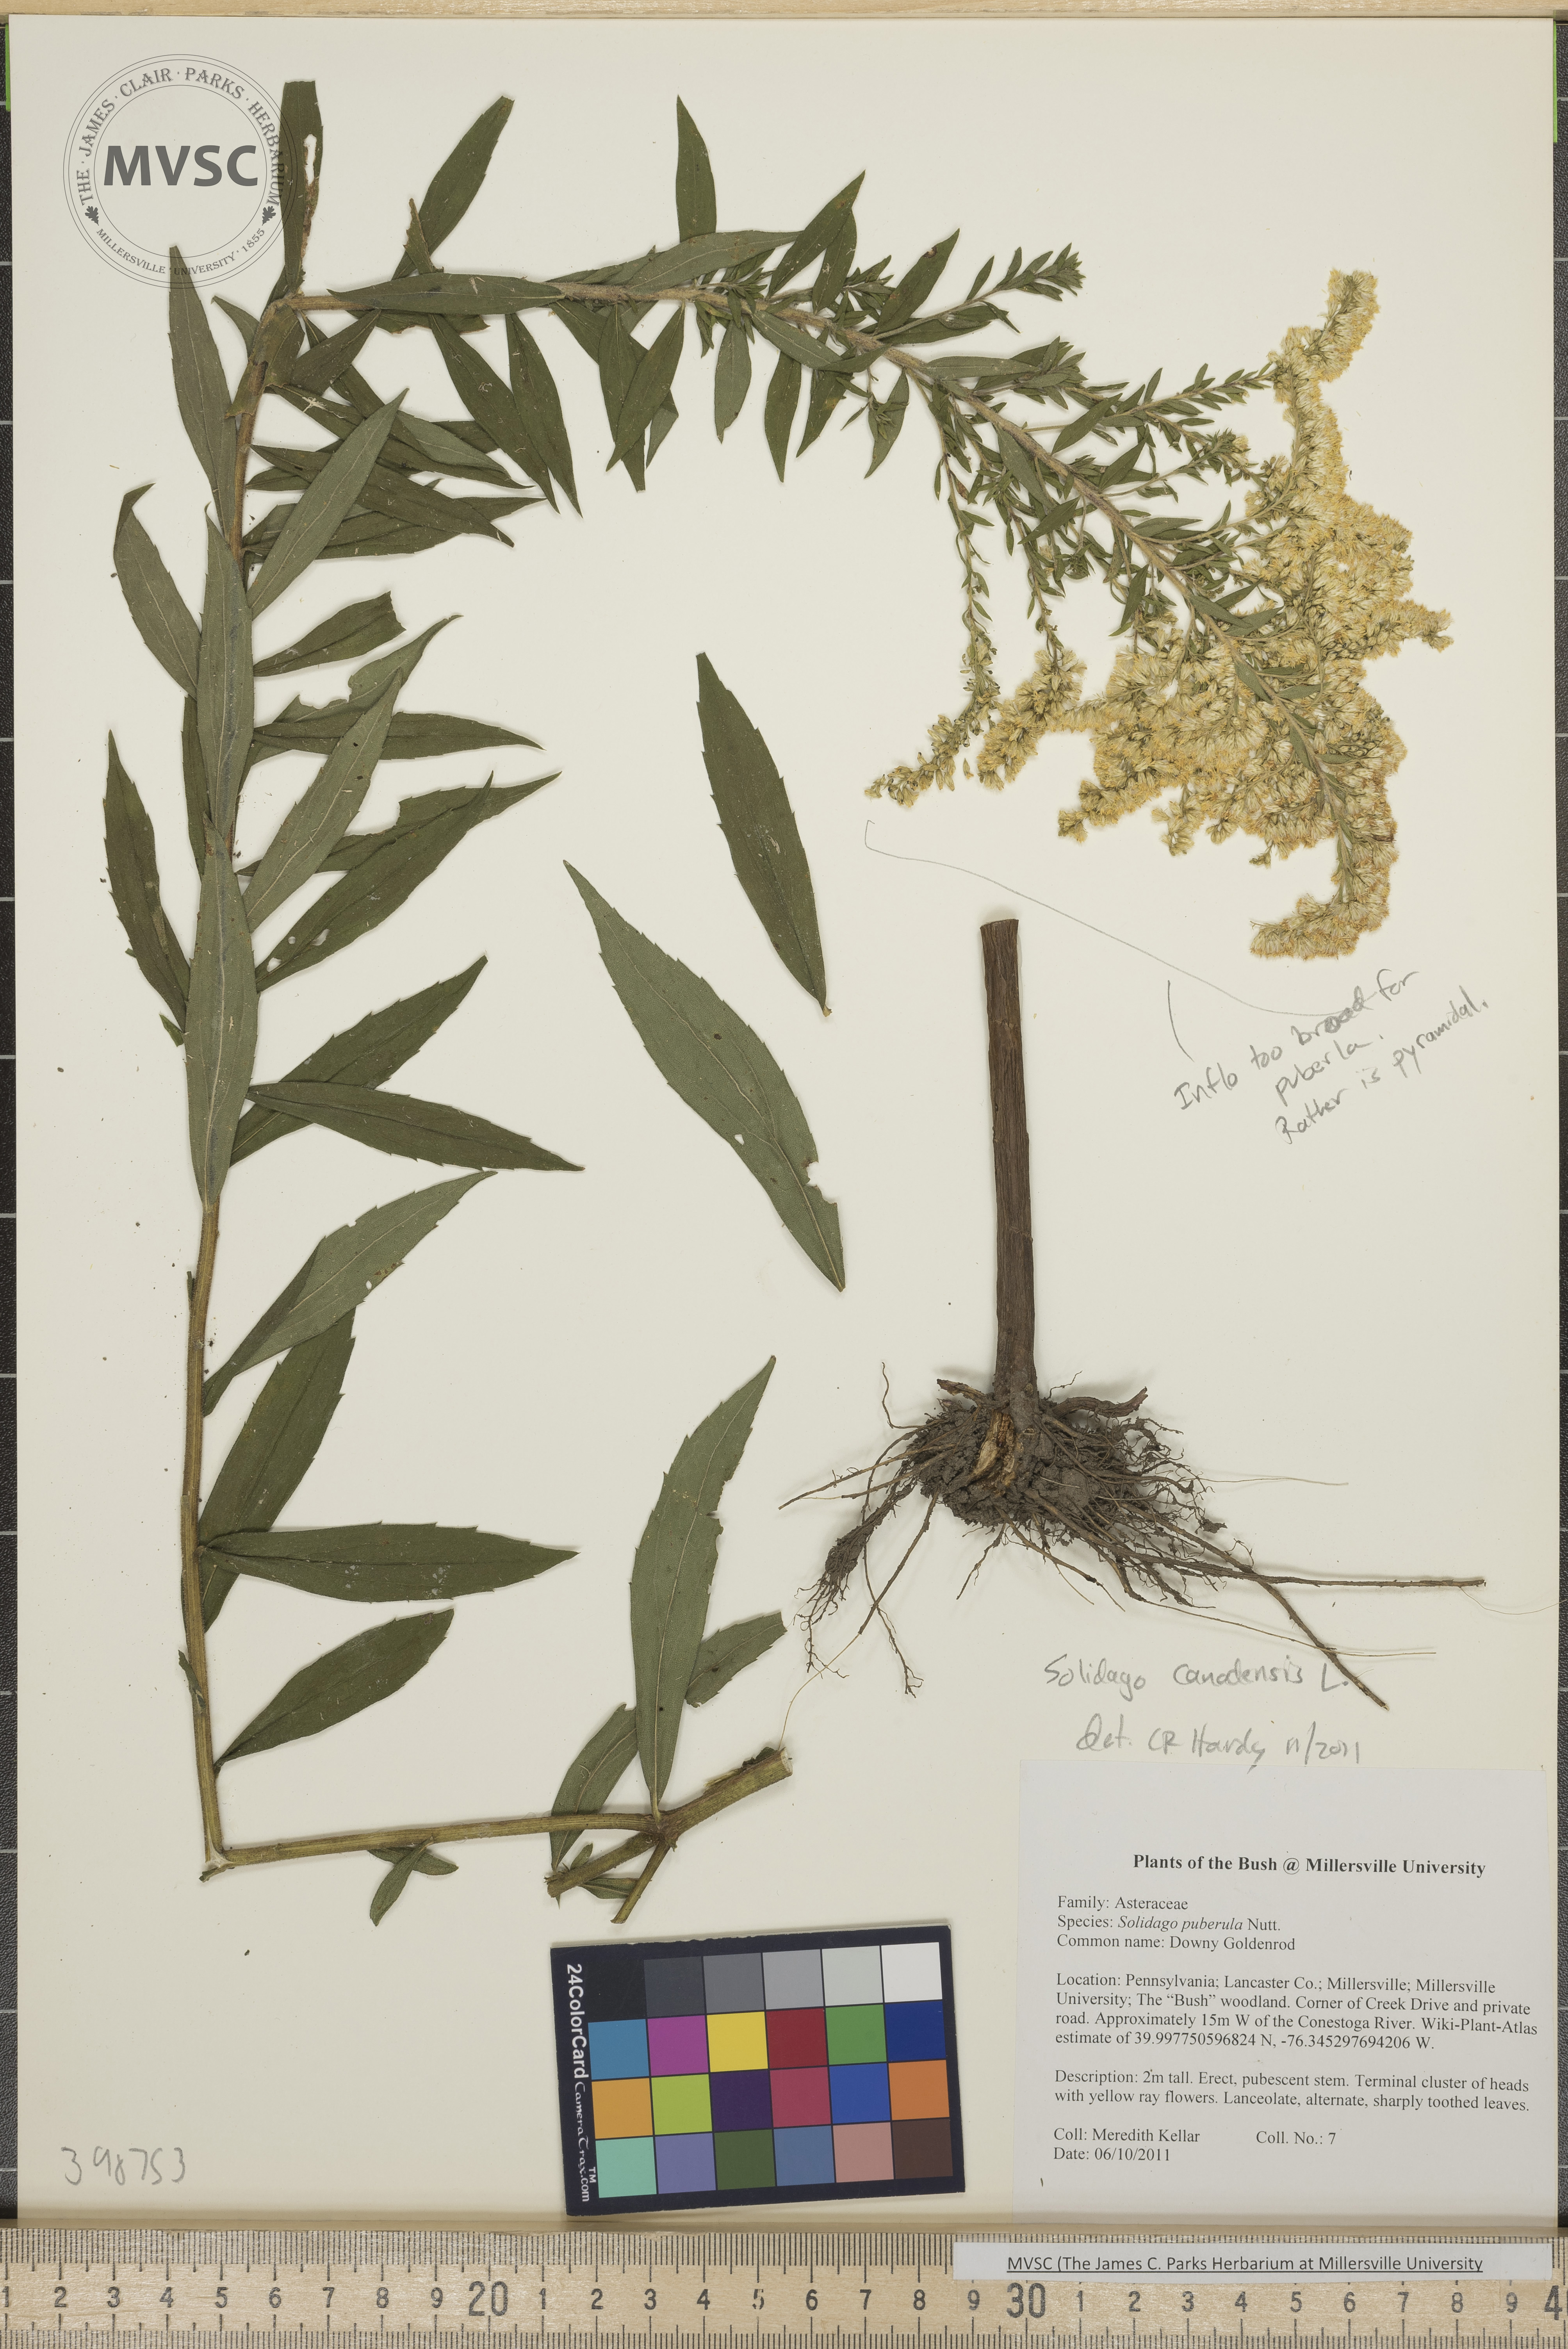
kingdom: Plantae
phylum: Tracheophyta
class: Magnoliopsida
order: Asterales
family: Asteraceae
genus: Solidago
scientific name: Solidago altissima
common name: Late goldenrod
